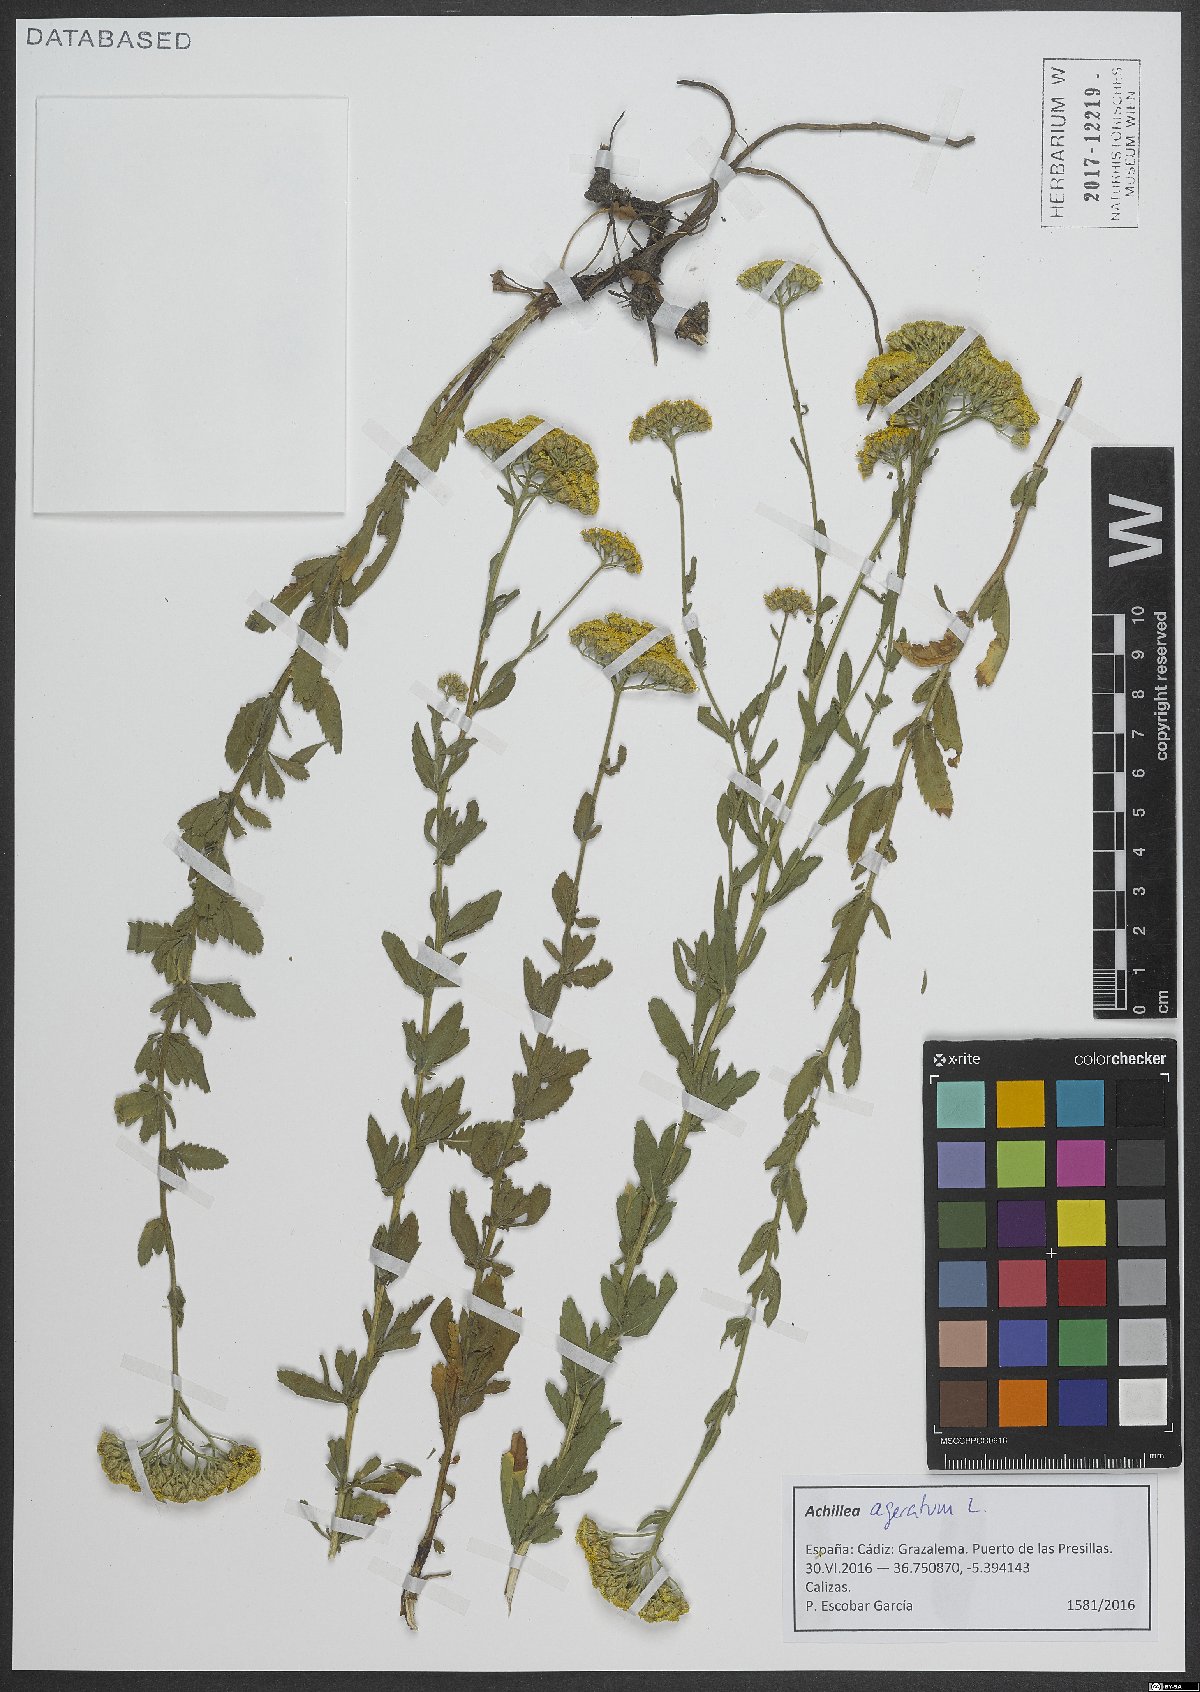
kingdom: Plantae
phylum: Tracheophyta
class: Magnoliopsida
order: Asterales
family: Asteraceae
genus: Achillea
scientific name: Achillea ageratum
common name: Sweet-nancy
